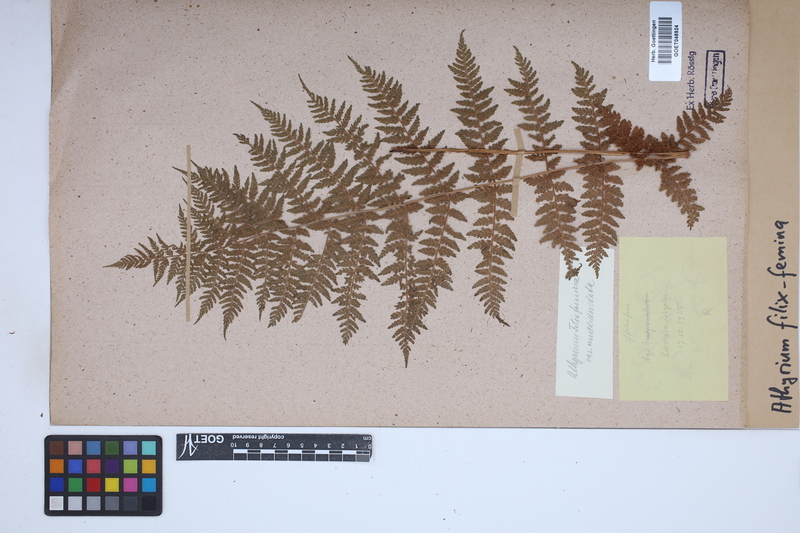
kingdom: Plantae
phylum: Tracheophyta
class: Polypodiopsida
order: Polypodiales
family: Athyriaceae
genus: Athyrium
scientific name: Athyrium filix-femina
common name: Lady fern
